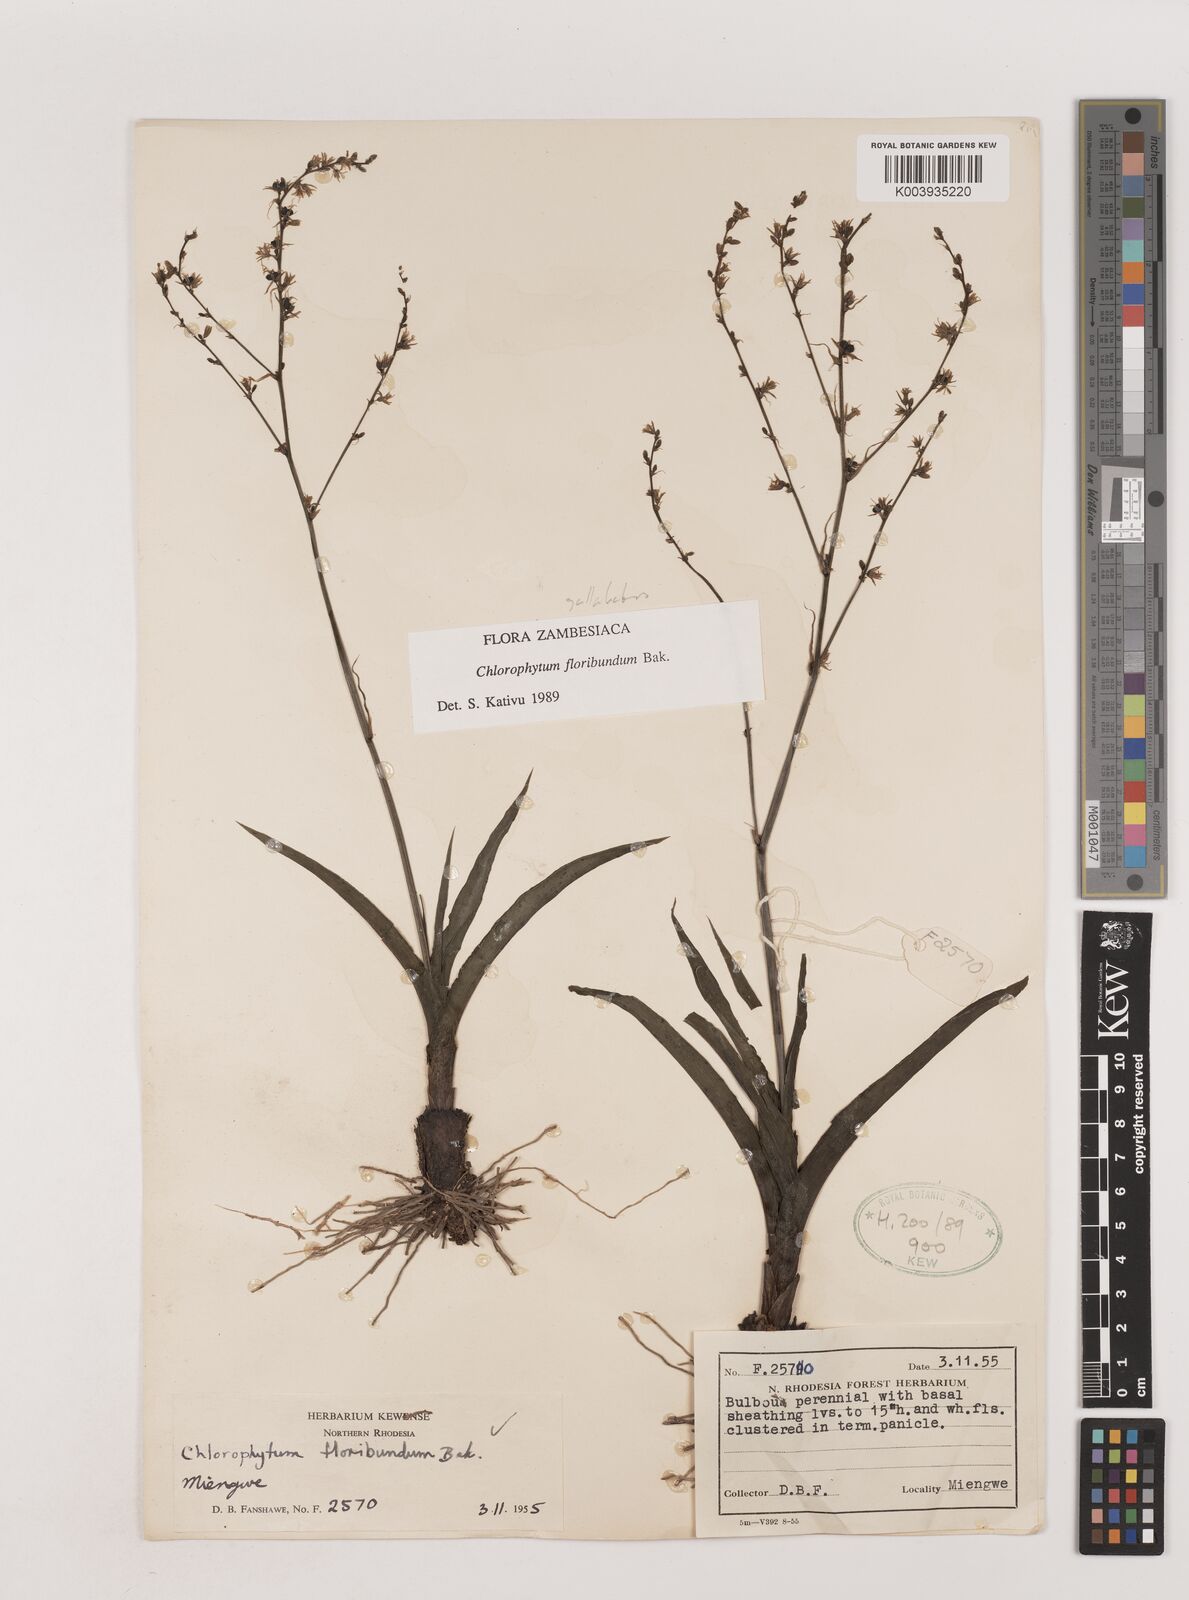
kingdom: Plantae
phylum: Tracheophyta
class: Liliopsida
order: Asparagales
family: Asparagaceae
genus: Chlorophytum
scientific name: Chlorophytum gallabatense
